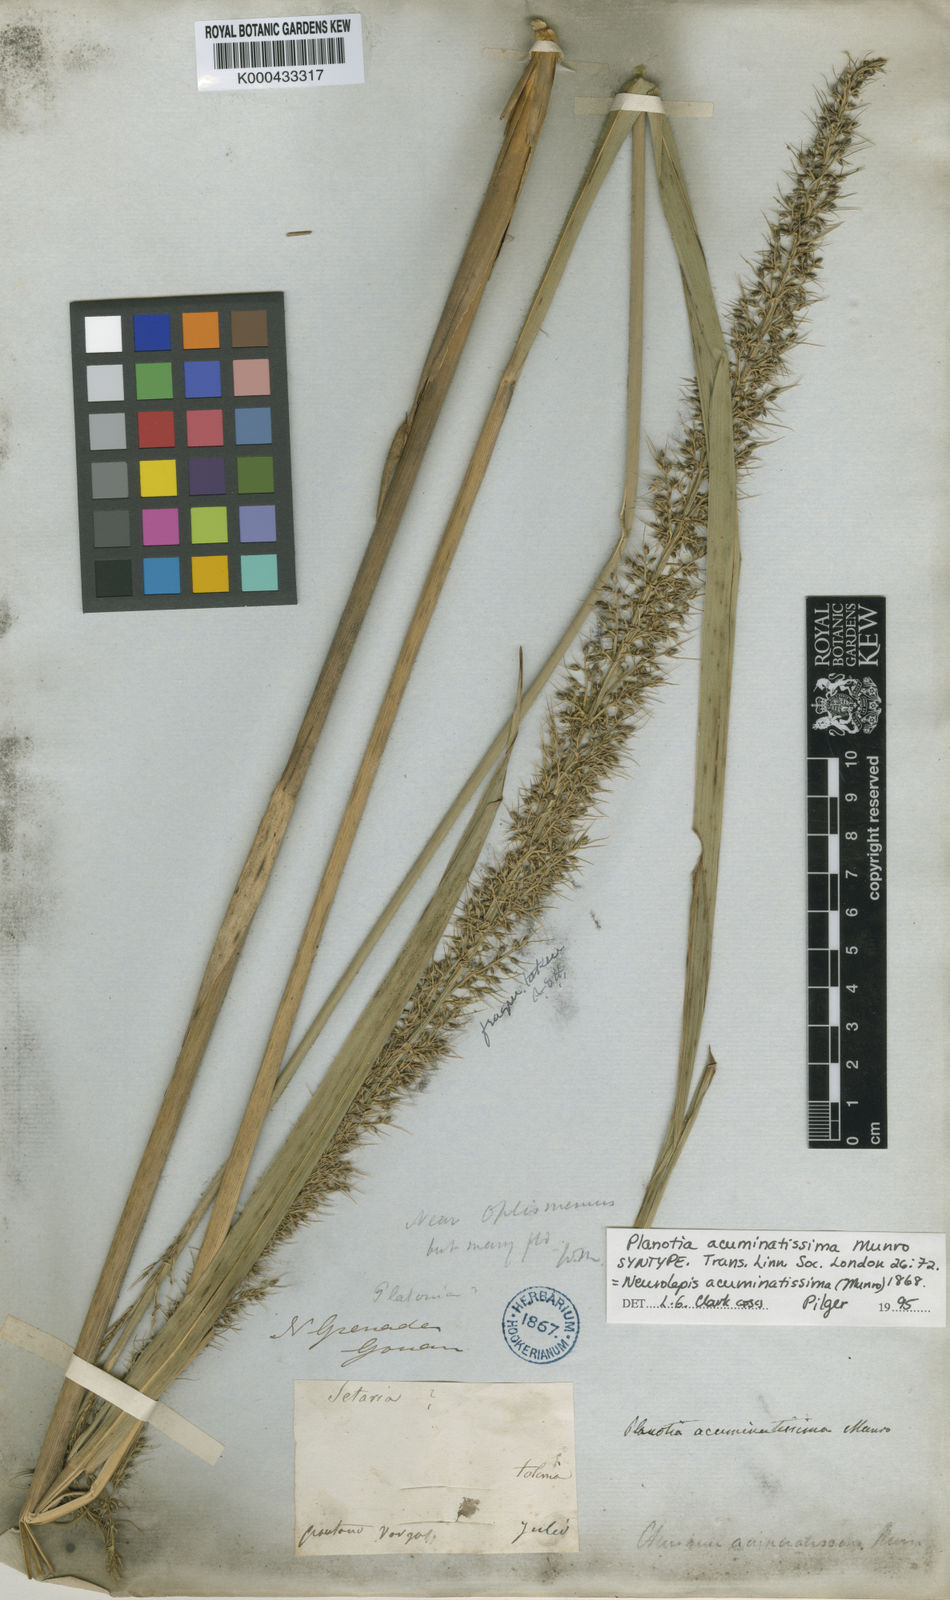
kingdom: Plantae
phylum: Tracheophyta
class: Liliopsida
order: Poales
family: Poaceae
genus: Chusquea
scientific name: Chusquea acuminatissima
